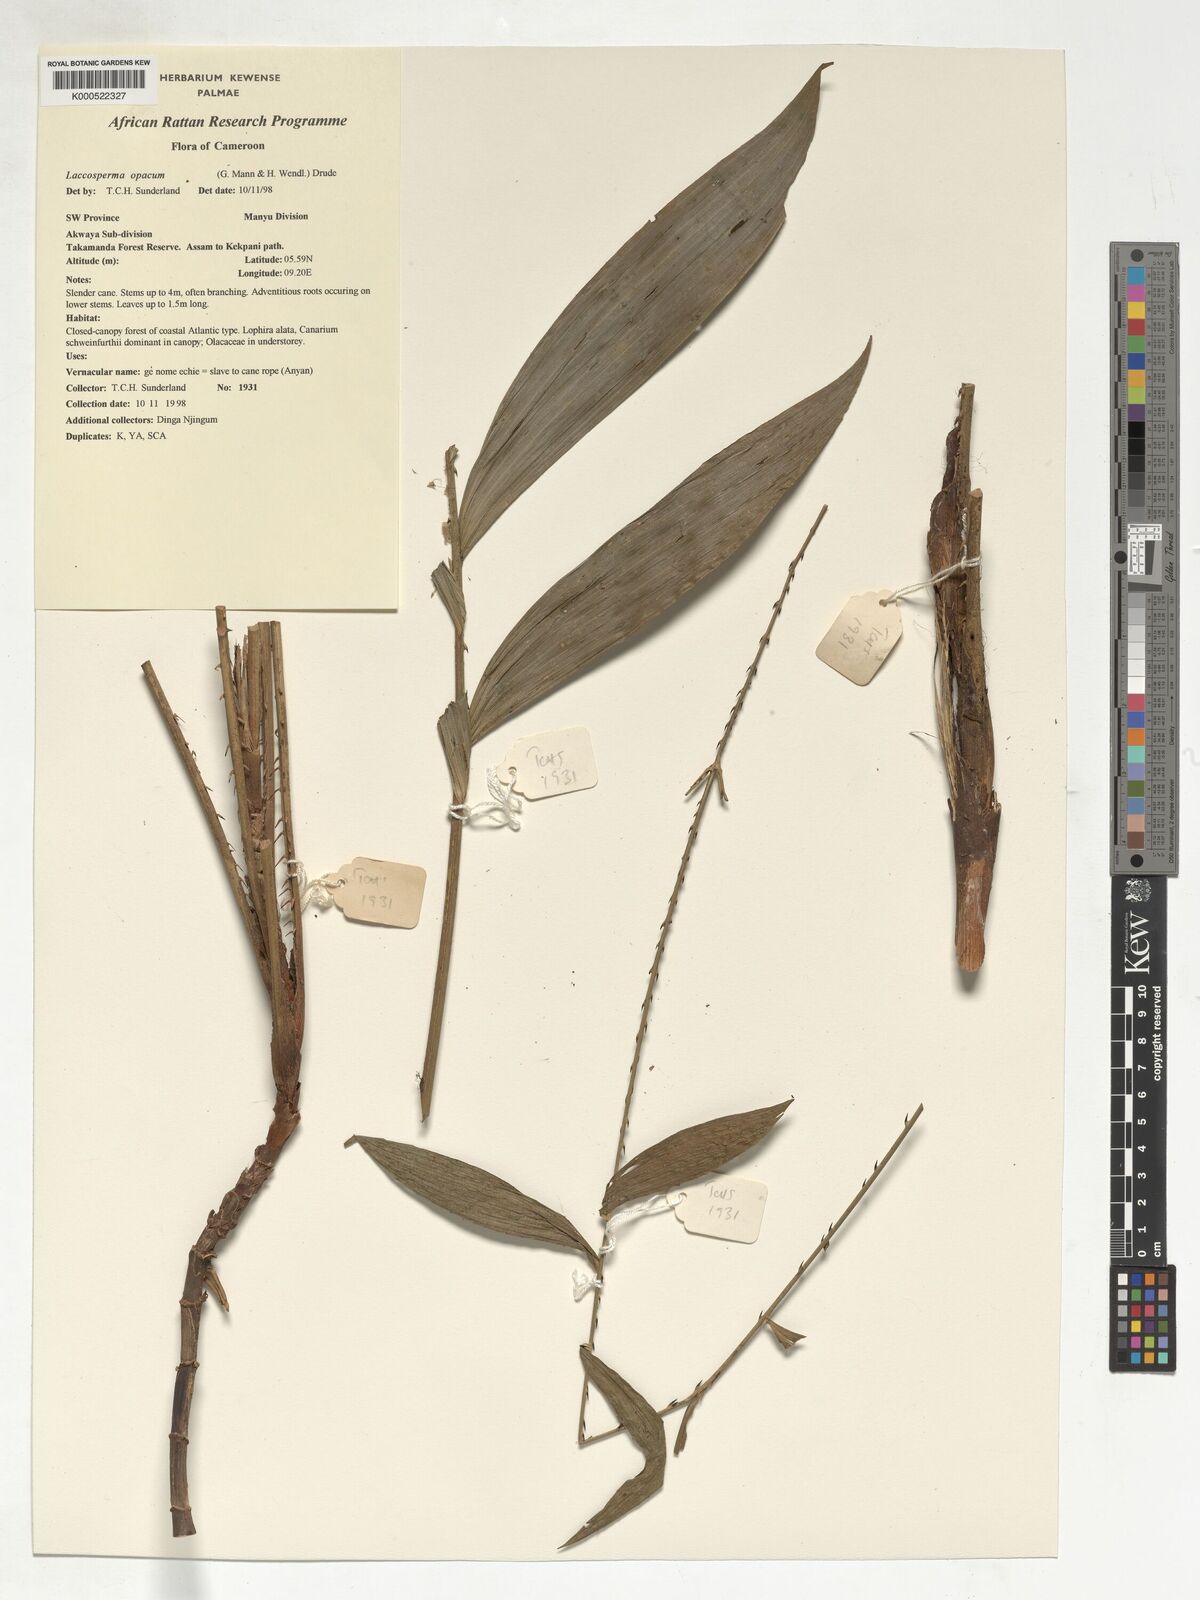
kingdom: Plantae
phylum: Tracheophyta
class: Liliopsida
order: Arecales
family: Arecaceae
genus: Laccosperma
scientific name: Laccosperma opacum
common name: Rattan
